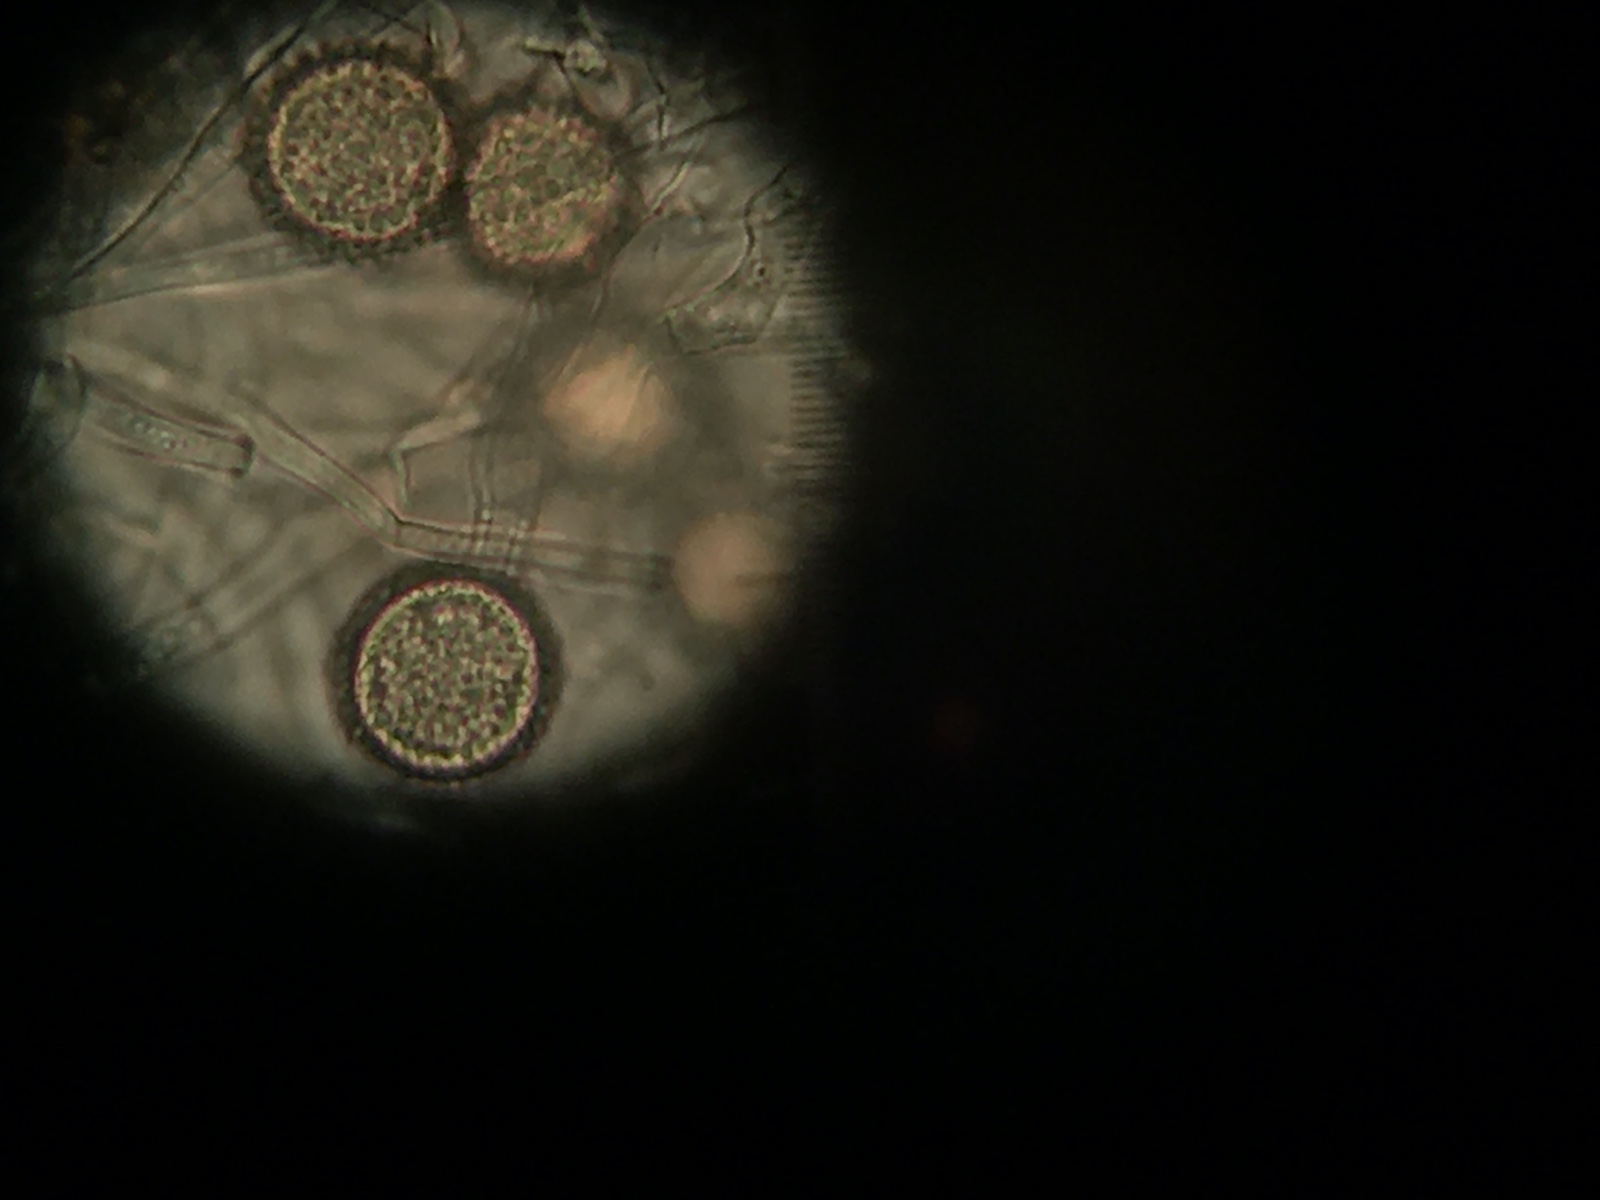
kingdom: Fungi
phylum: Ascomycota
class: Sordariomycetes
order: Hypocreales
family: Hypocreaceae
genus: Hypomyces
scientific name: Hypomyces chrysospermus
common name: gulskimmel-snylteskorpe
